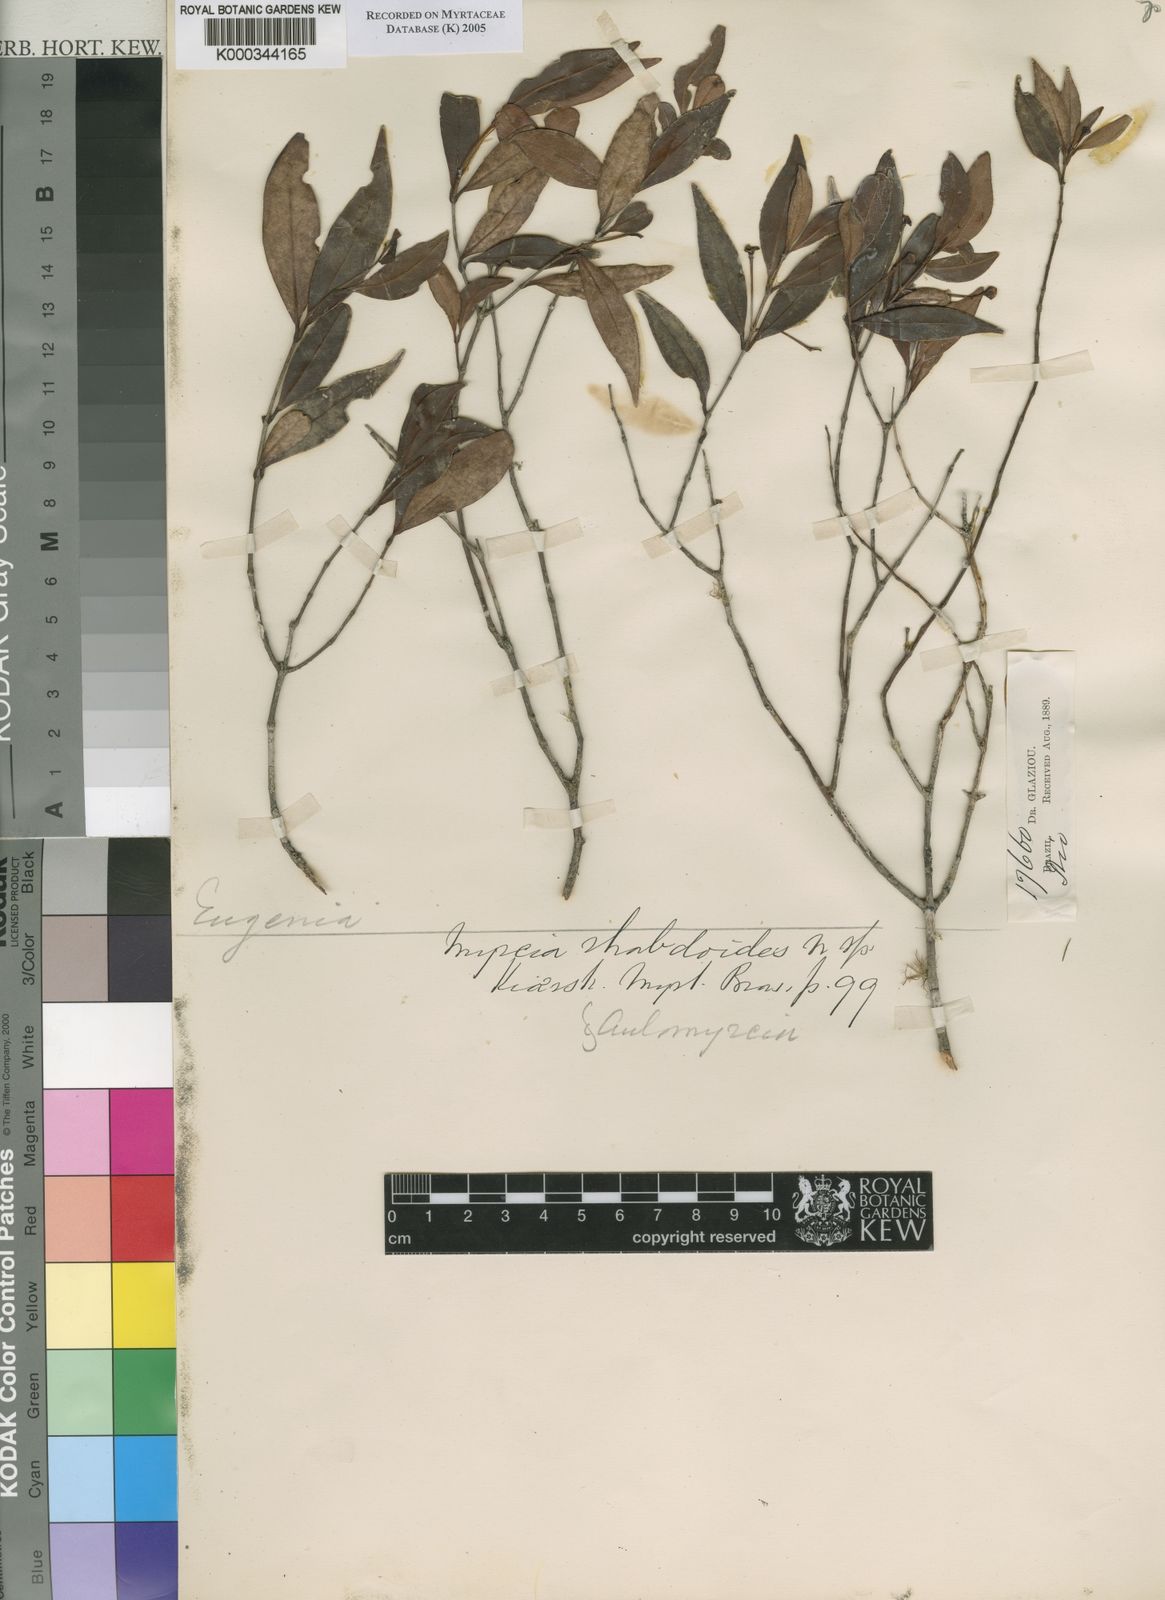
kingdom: Plantae
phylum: Tracheophyta
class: Magnoliopsida
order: Myrtales
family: Myrtaceae
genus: Myrcia
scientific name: Myrcia guianensis
